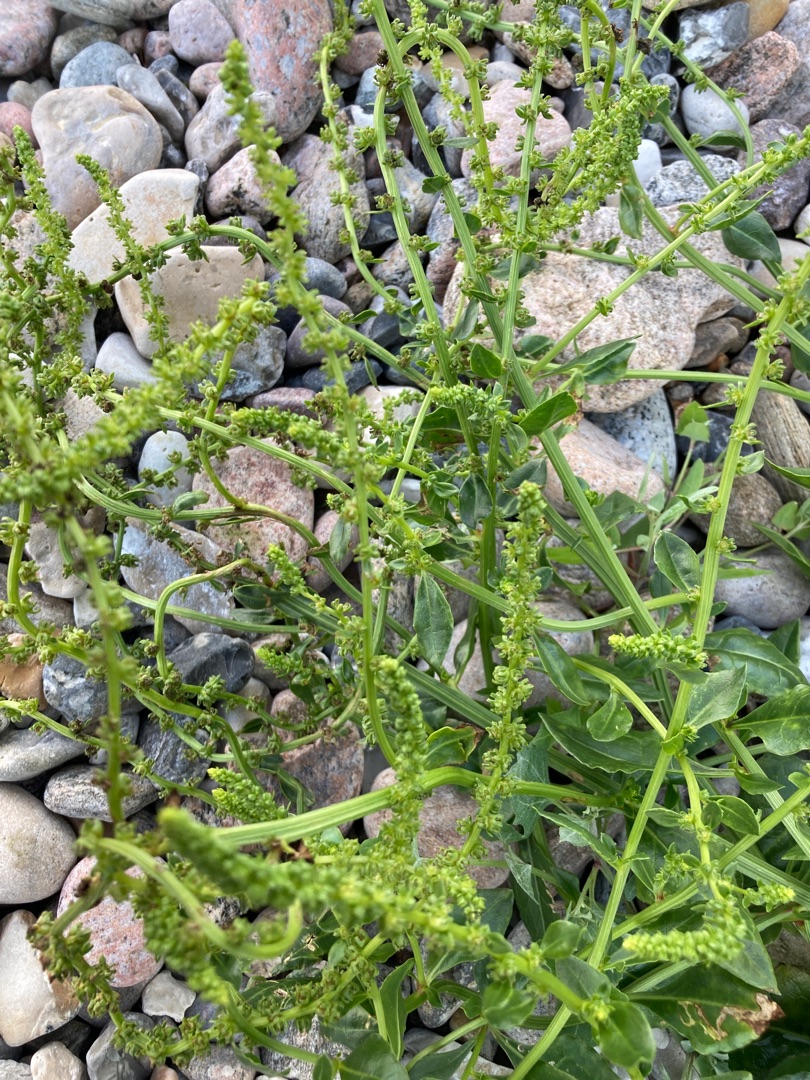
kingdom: Plantae
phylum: Tracheophyta
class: Magnoliopsida
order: Caryophyllales
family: Amaranthaceae
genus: Beta
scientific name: Beta maritima
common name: Strand-bede
